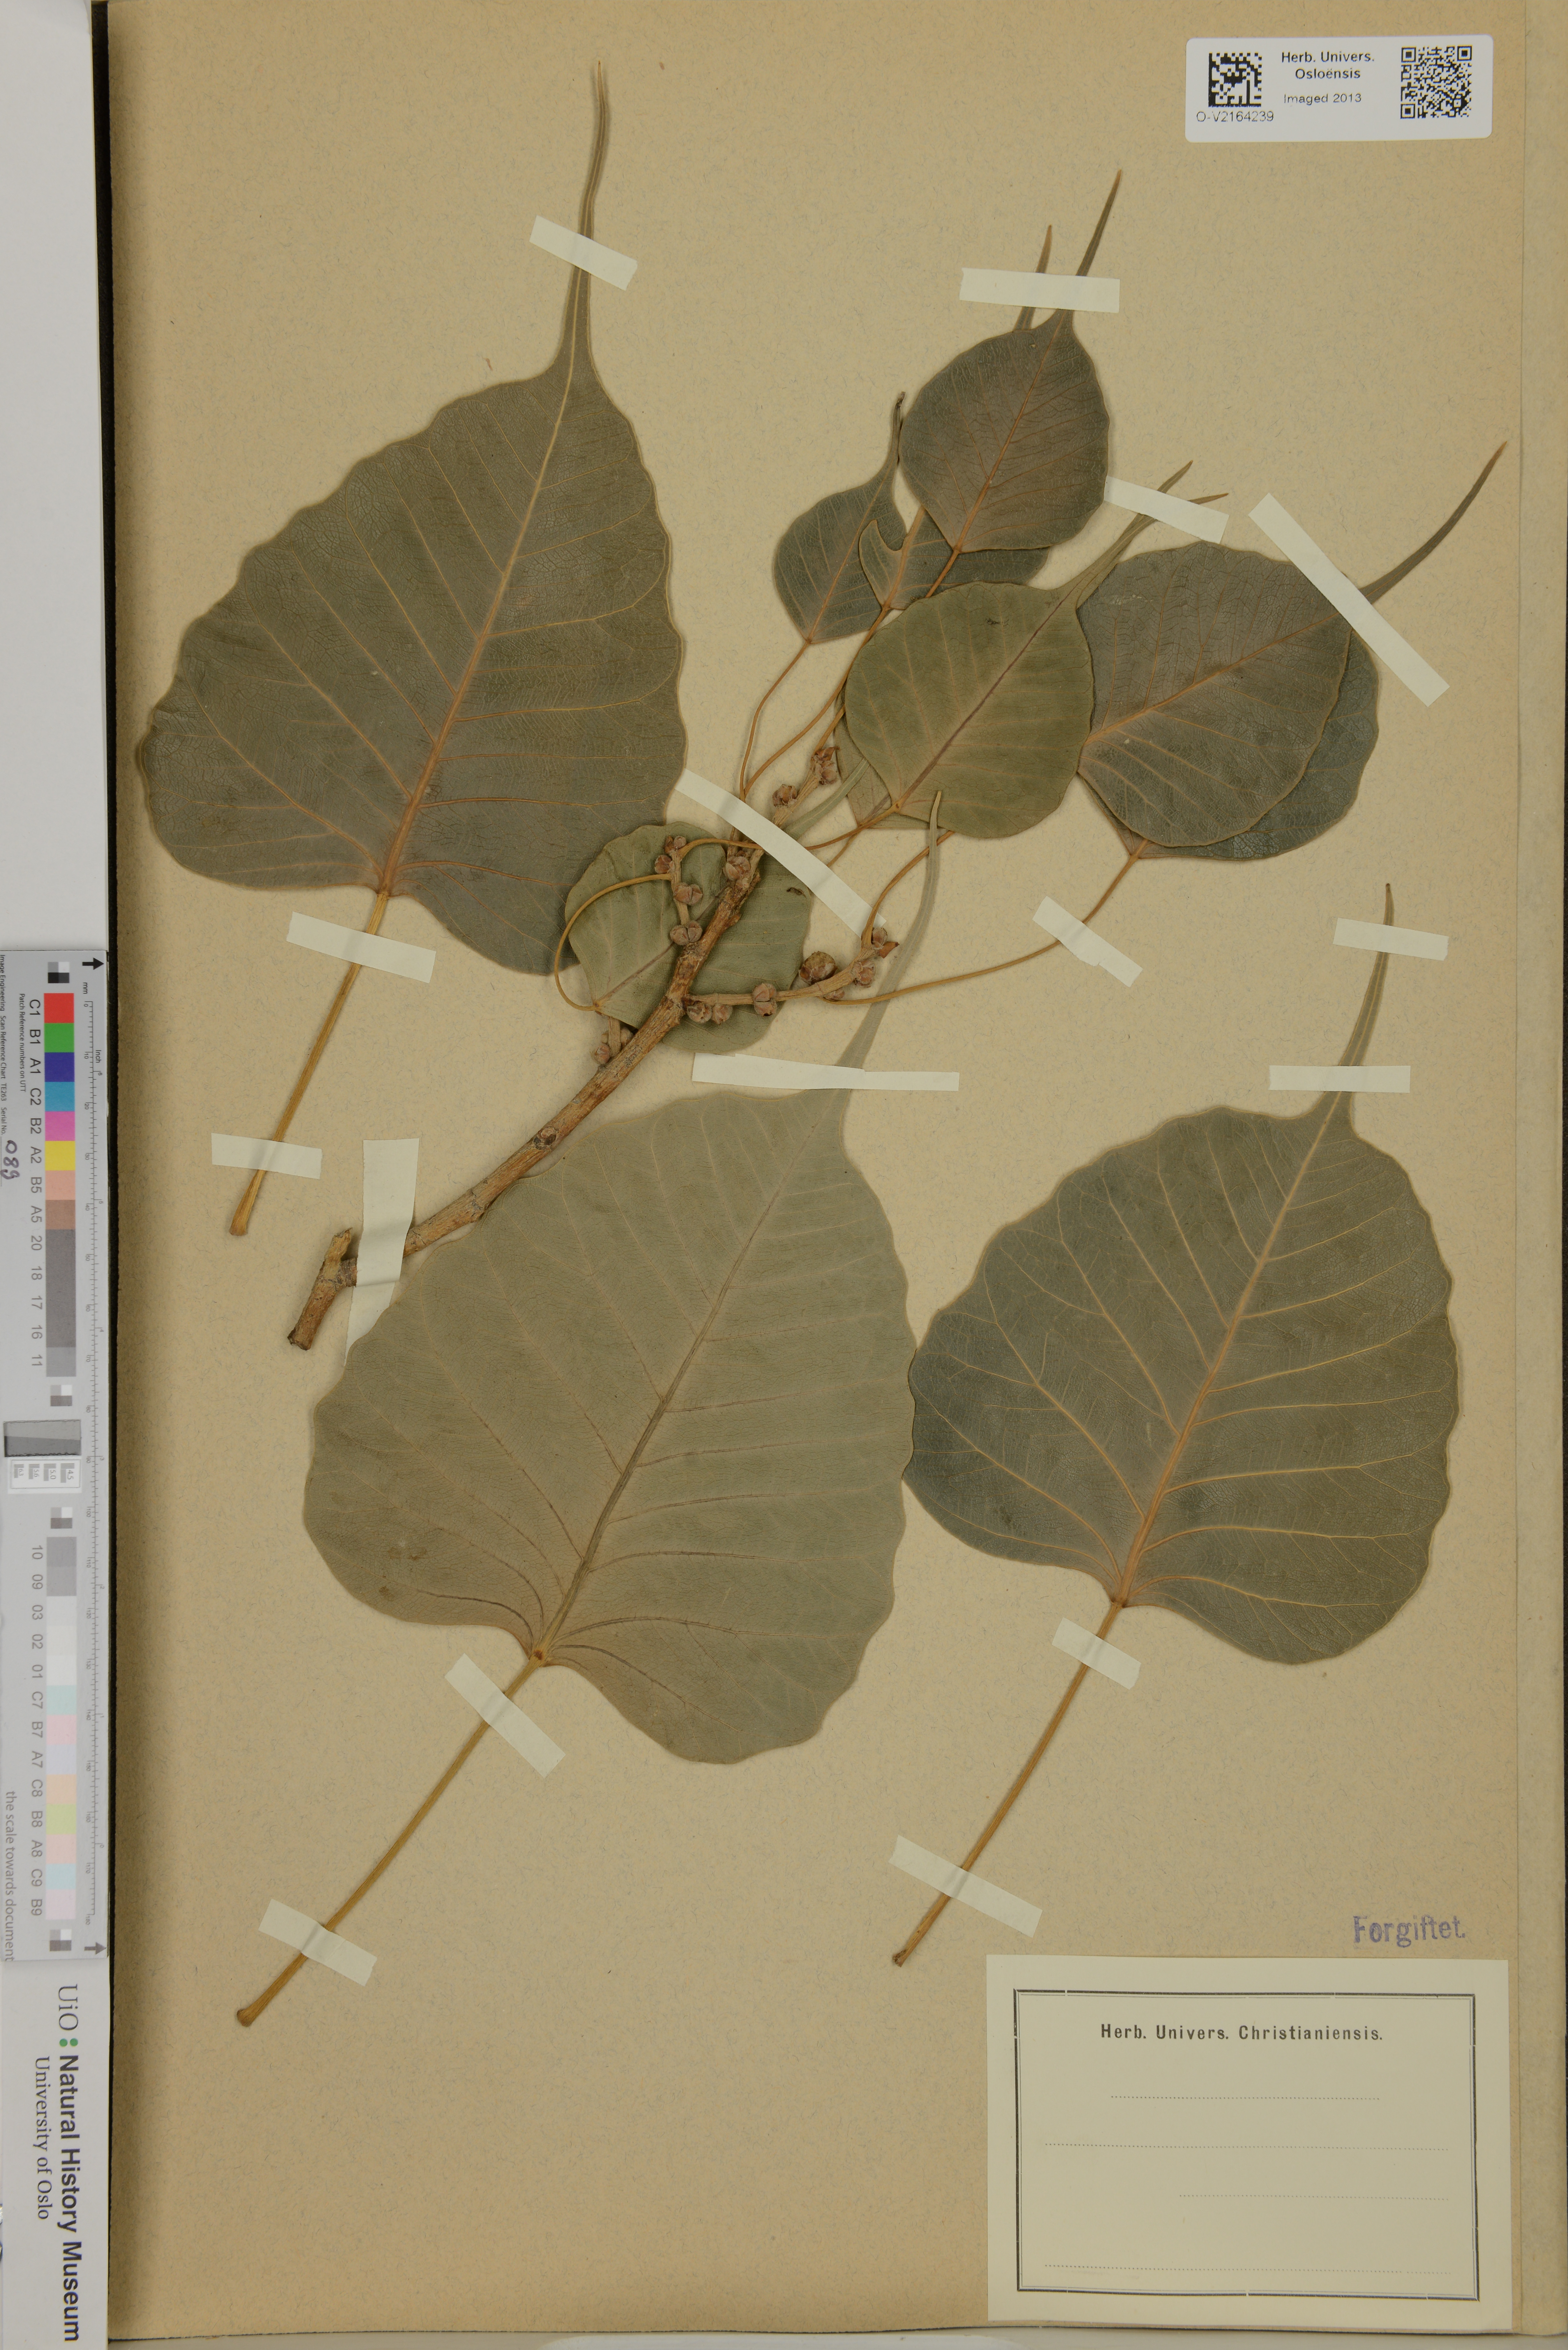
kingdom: Plantae
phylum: Tracheophyta
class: Magnoliopsida
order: Rosales
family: Moraceae
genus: Ficus
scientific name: Ficus religiosa
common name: Bodhi tree
